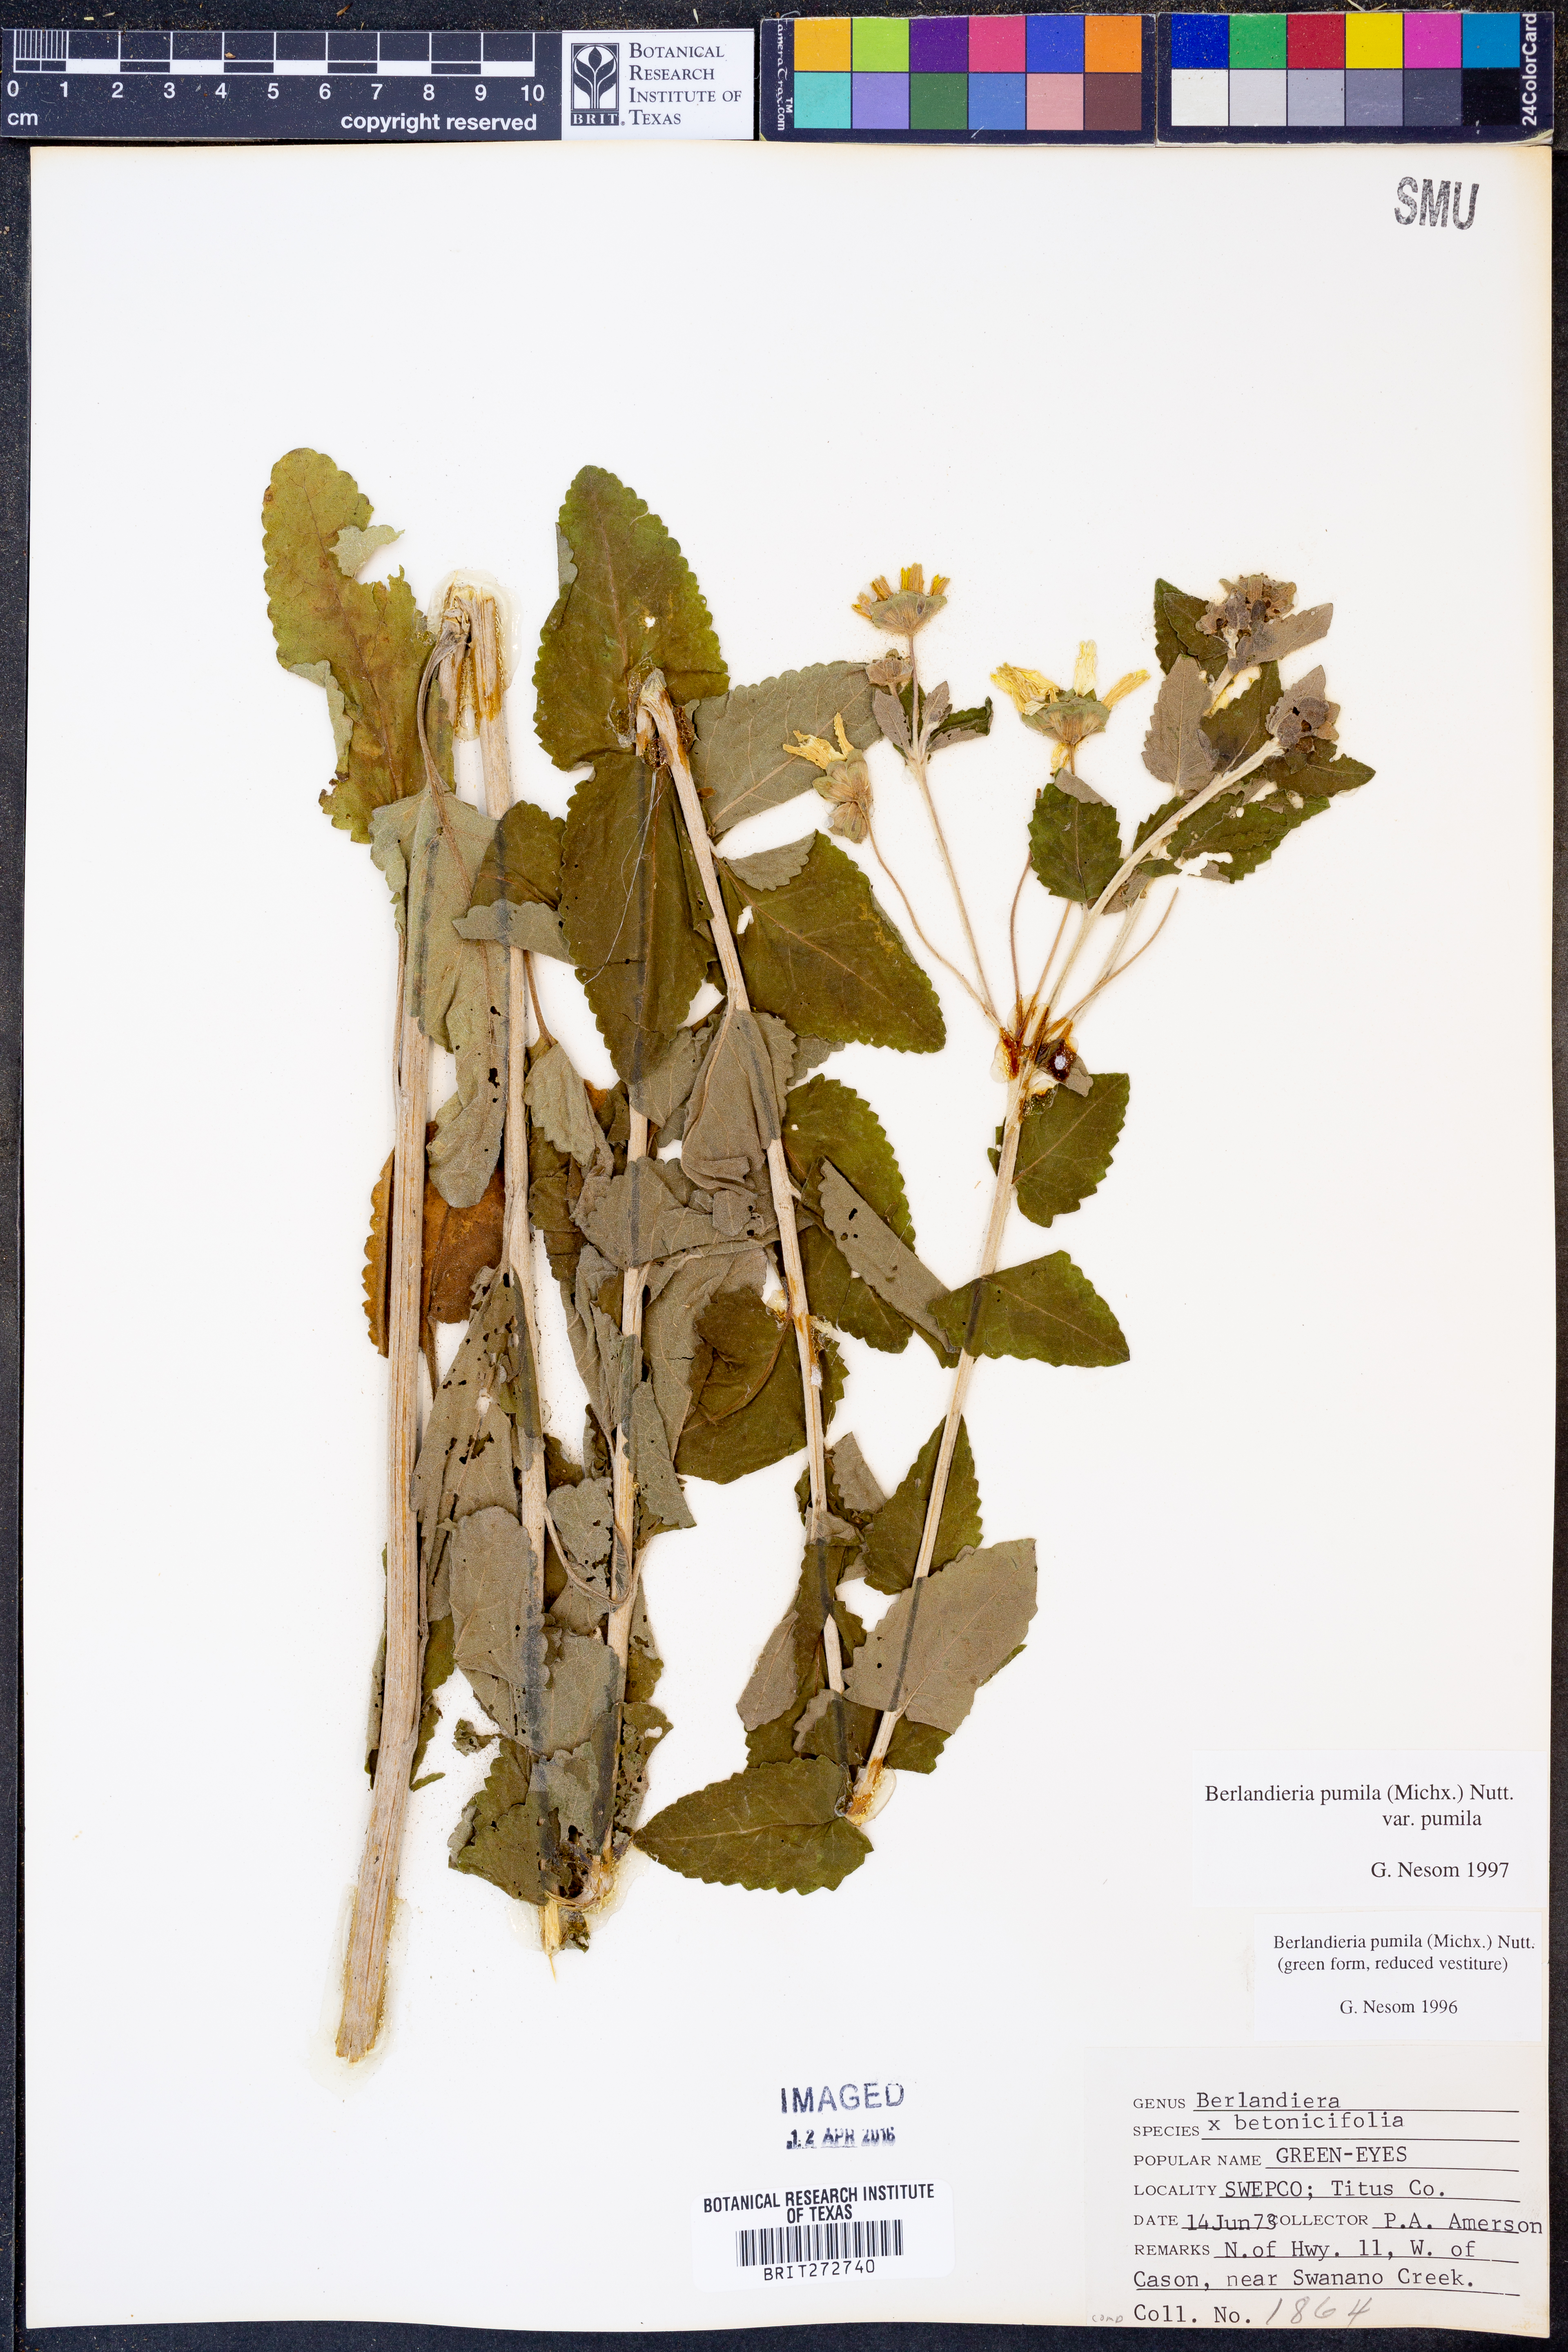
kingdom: Plantae
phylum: Tracheophyta
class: Magnoliopsida
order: Asterales
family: Asteraceae
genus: Berlandiera
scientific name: Berlandiera pumila
